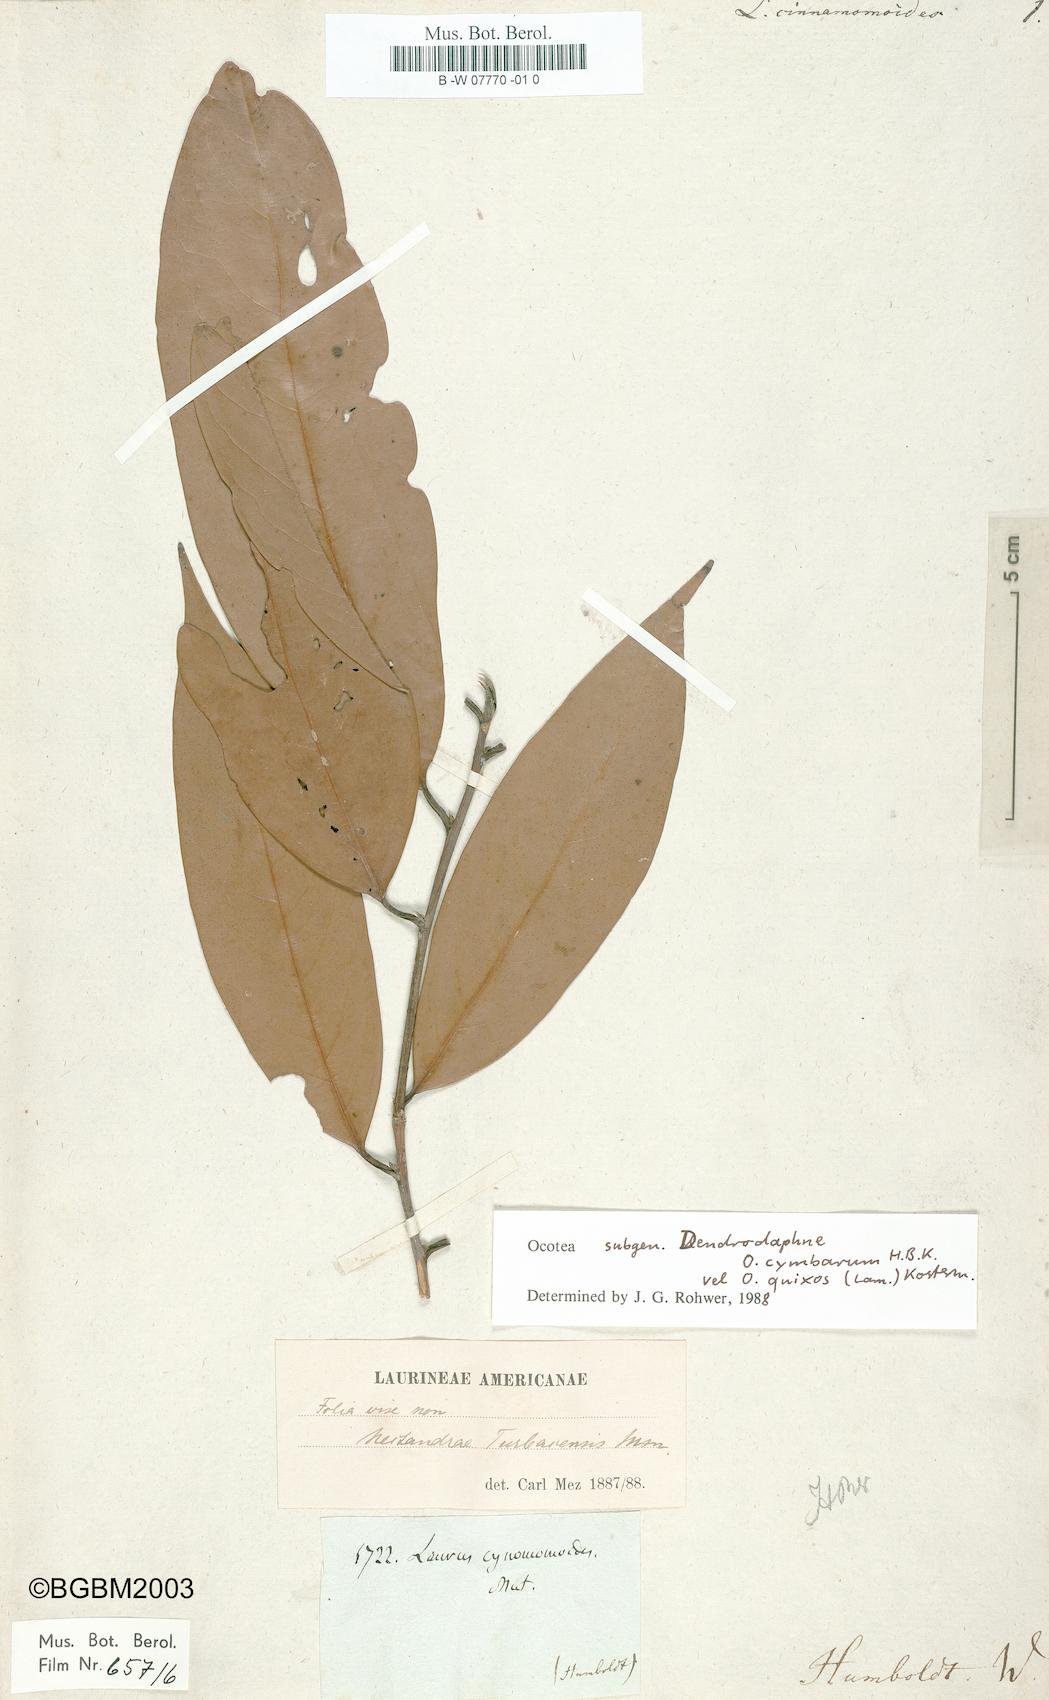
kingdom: Plantae
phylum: Tracheophyta
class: Magnoliopsida
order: Laurales
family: Lauraceae
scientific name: Lauraceae
